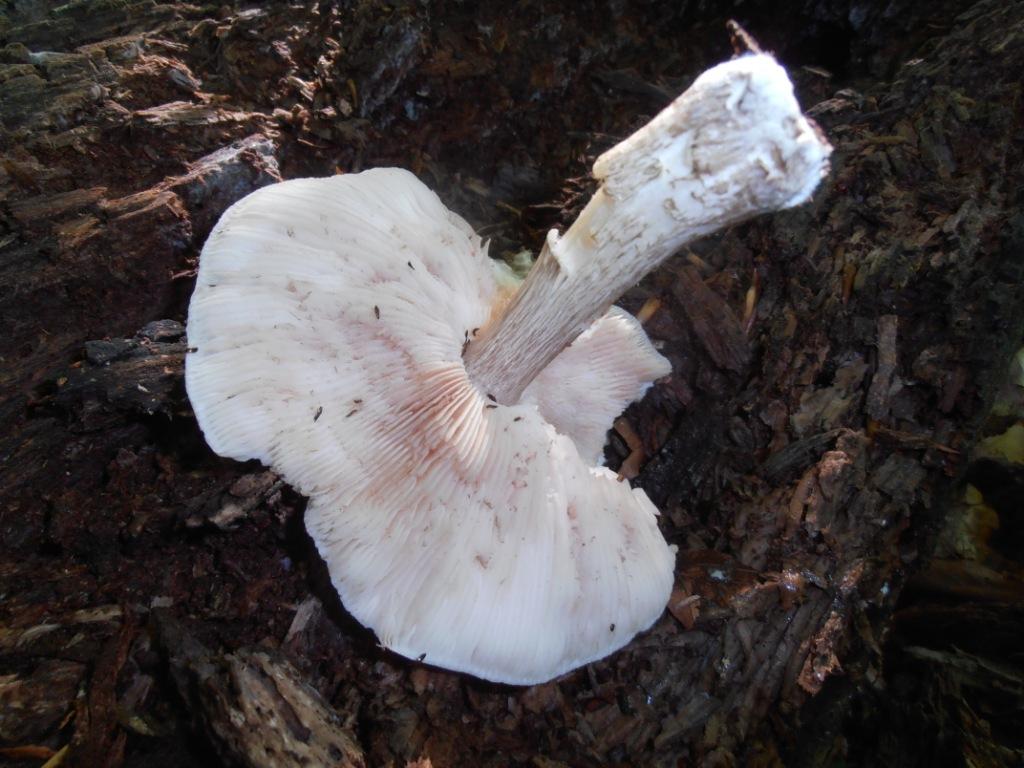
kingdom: Fungi
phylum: Basidiomycota
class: Agaricomycetes
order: Agaricales
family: Pluteaceae
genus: Pluteus
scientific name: Pluteus cervinus
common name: sodfarvet skærmhat
